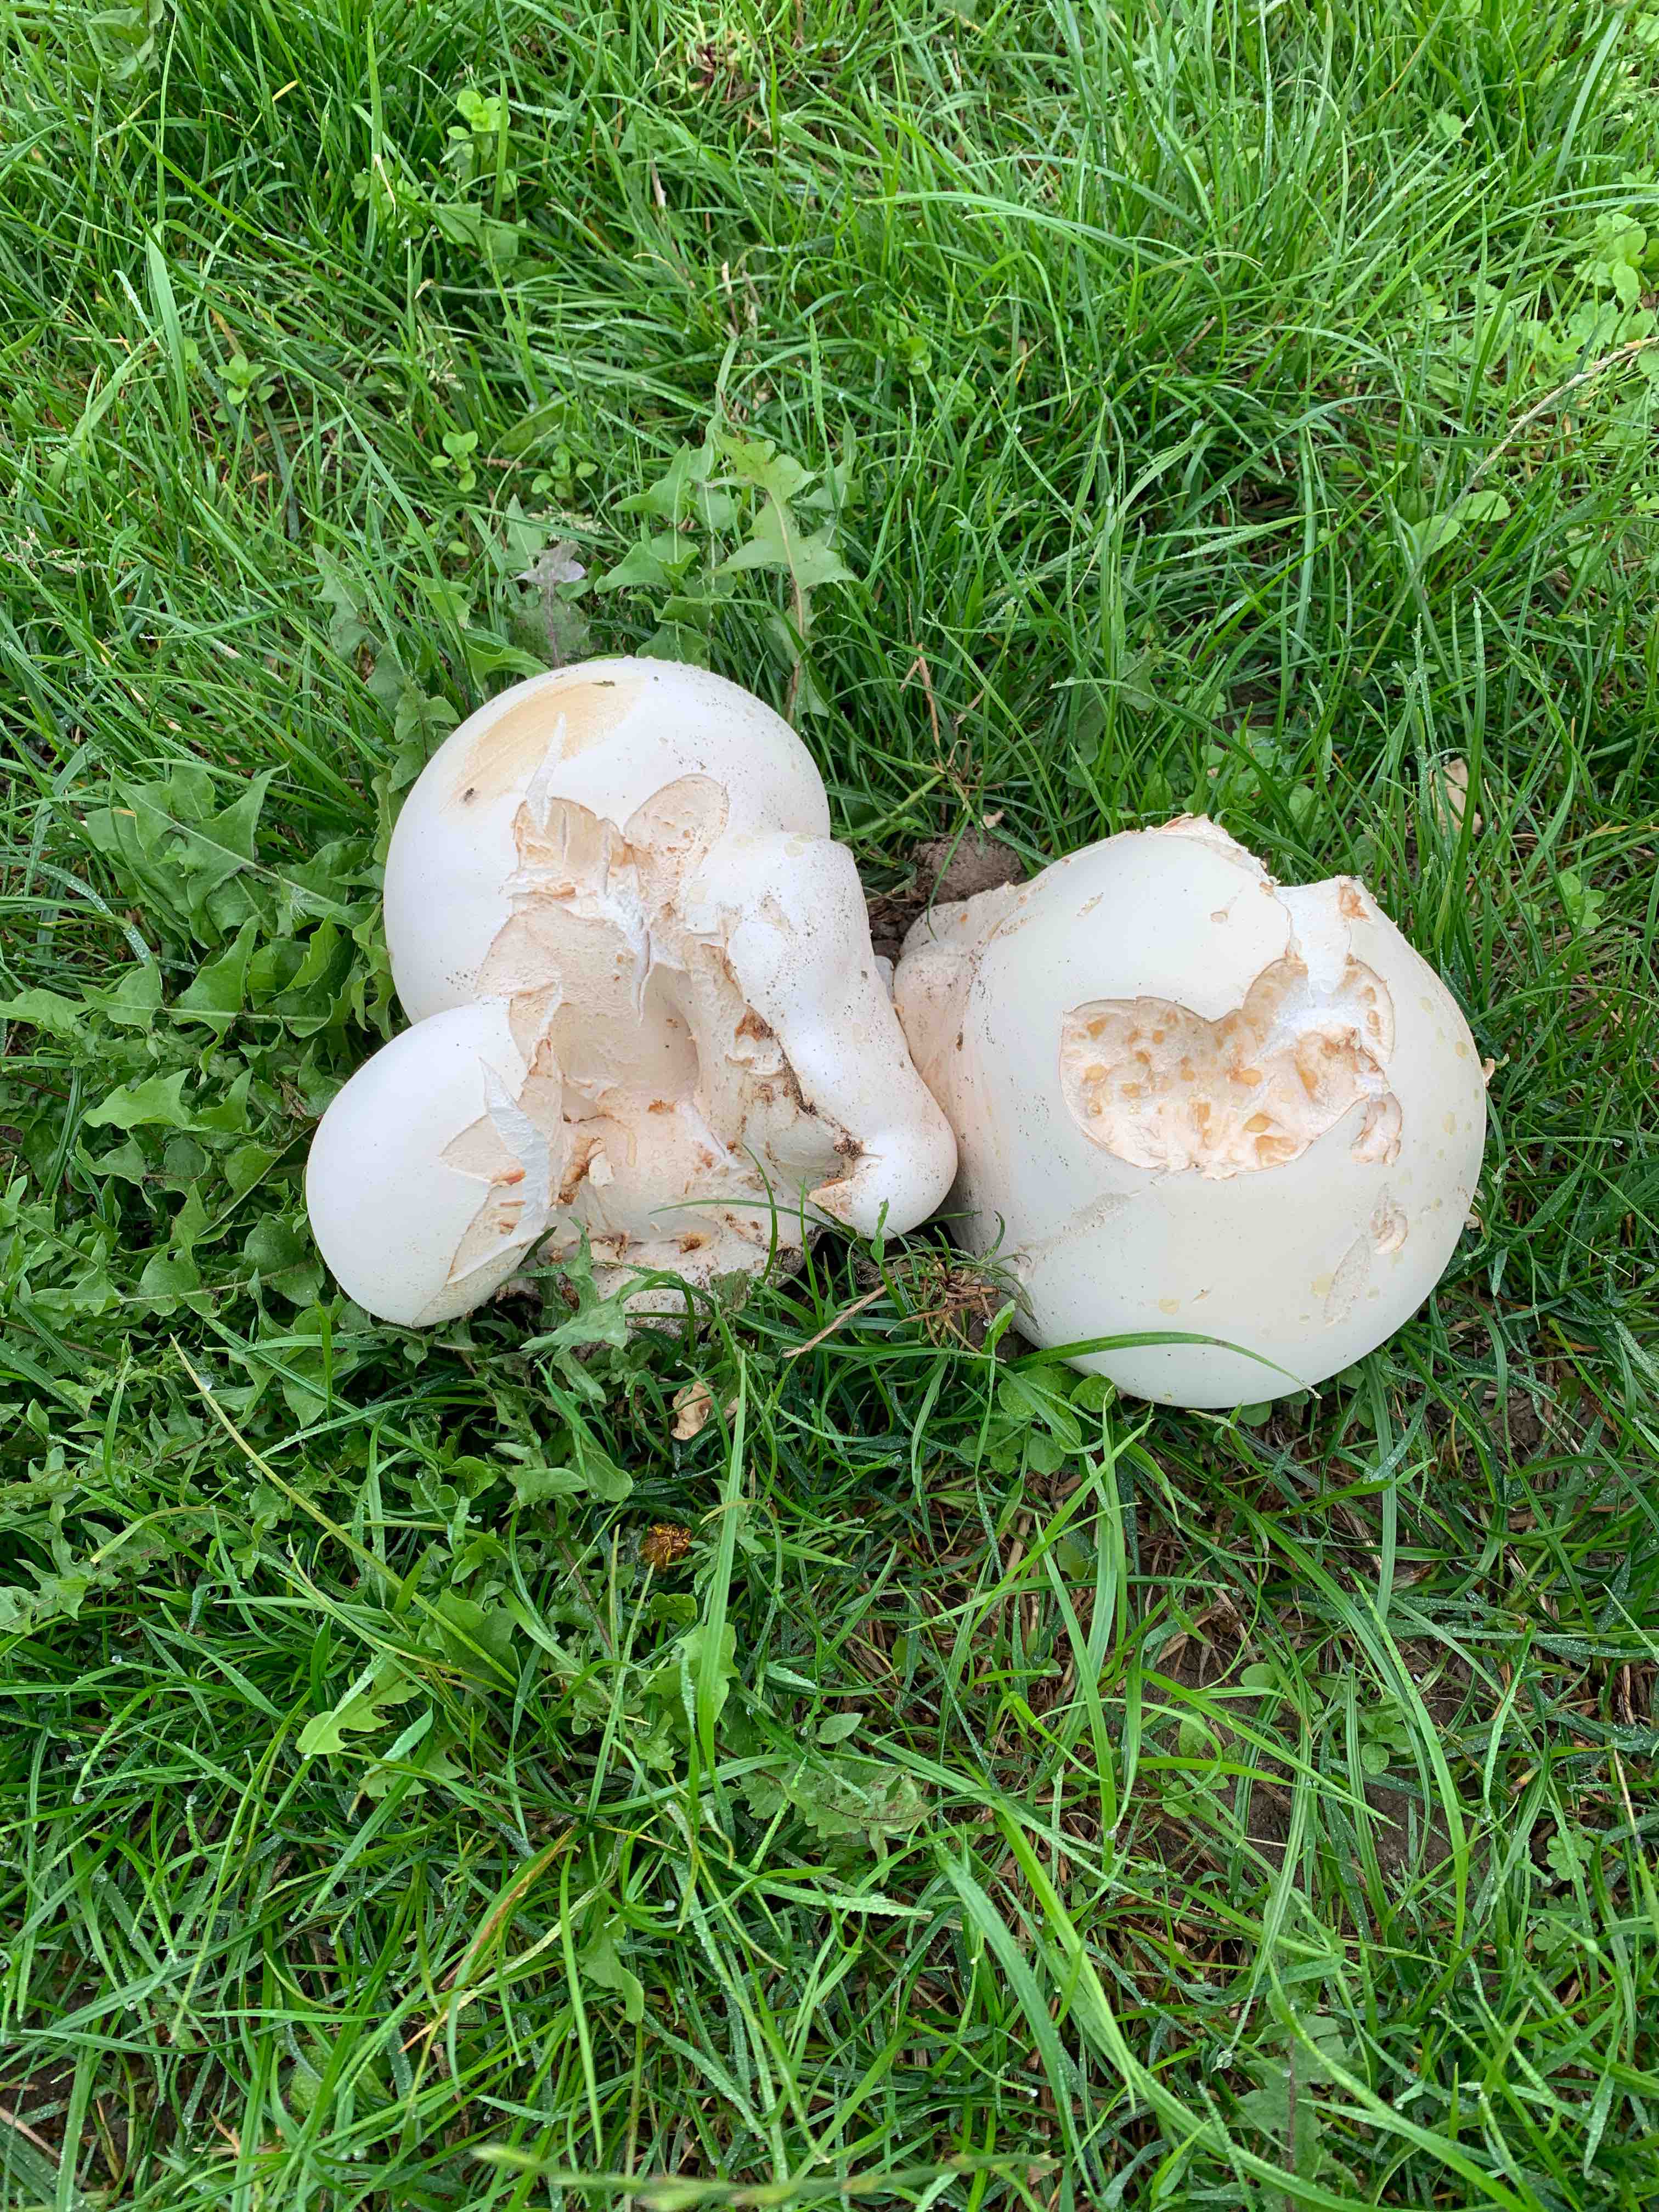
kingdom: Fungi
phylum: Basidiomycota
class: Agaricomycetes
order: Agaricales
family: Lycoperdaceae
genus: Calvatia
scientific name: Calvatia gigantea
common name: kæmpestøvbold
